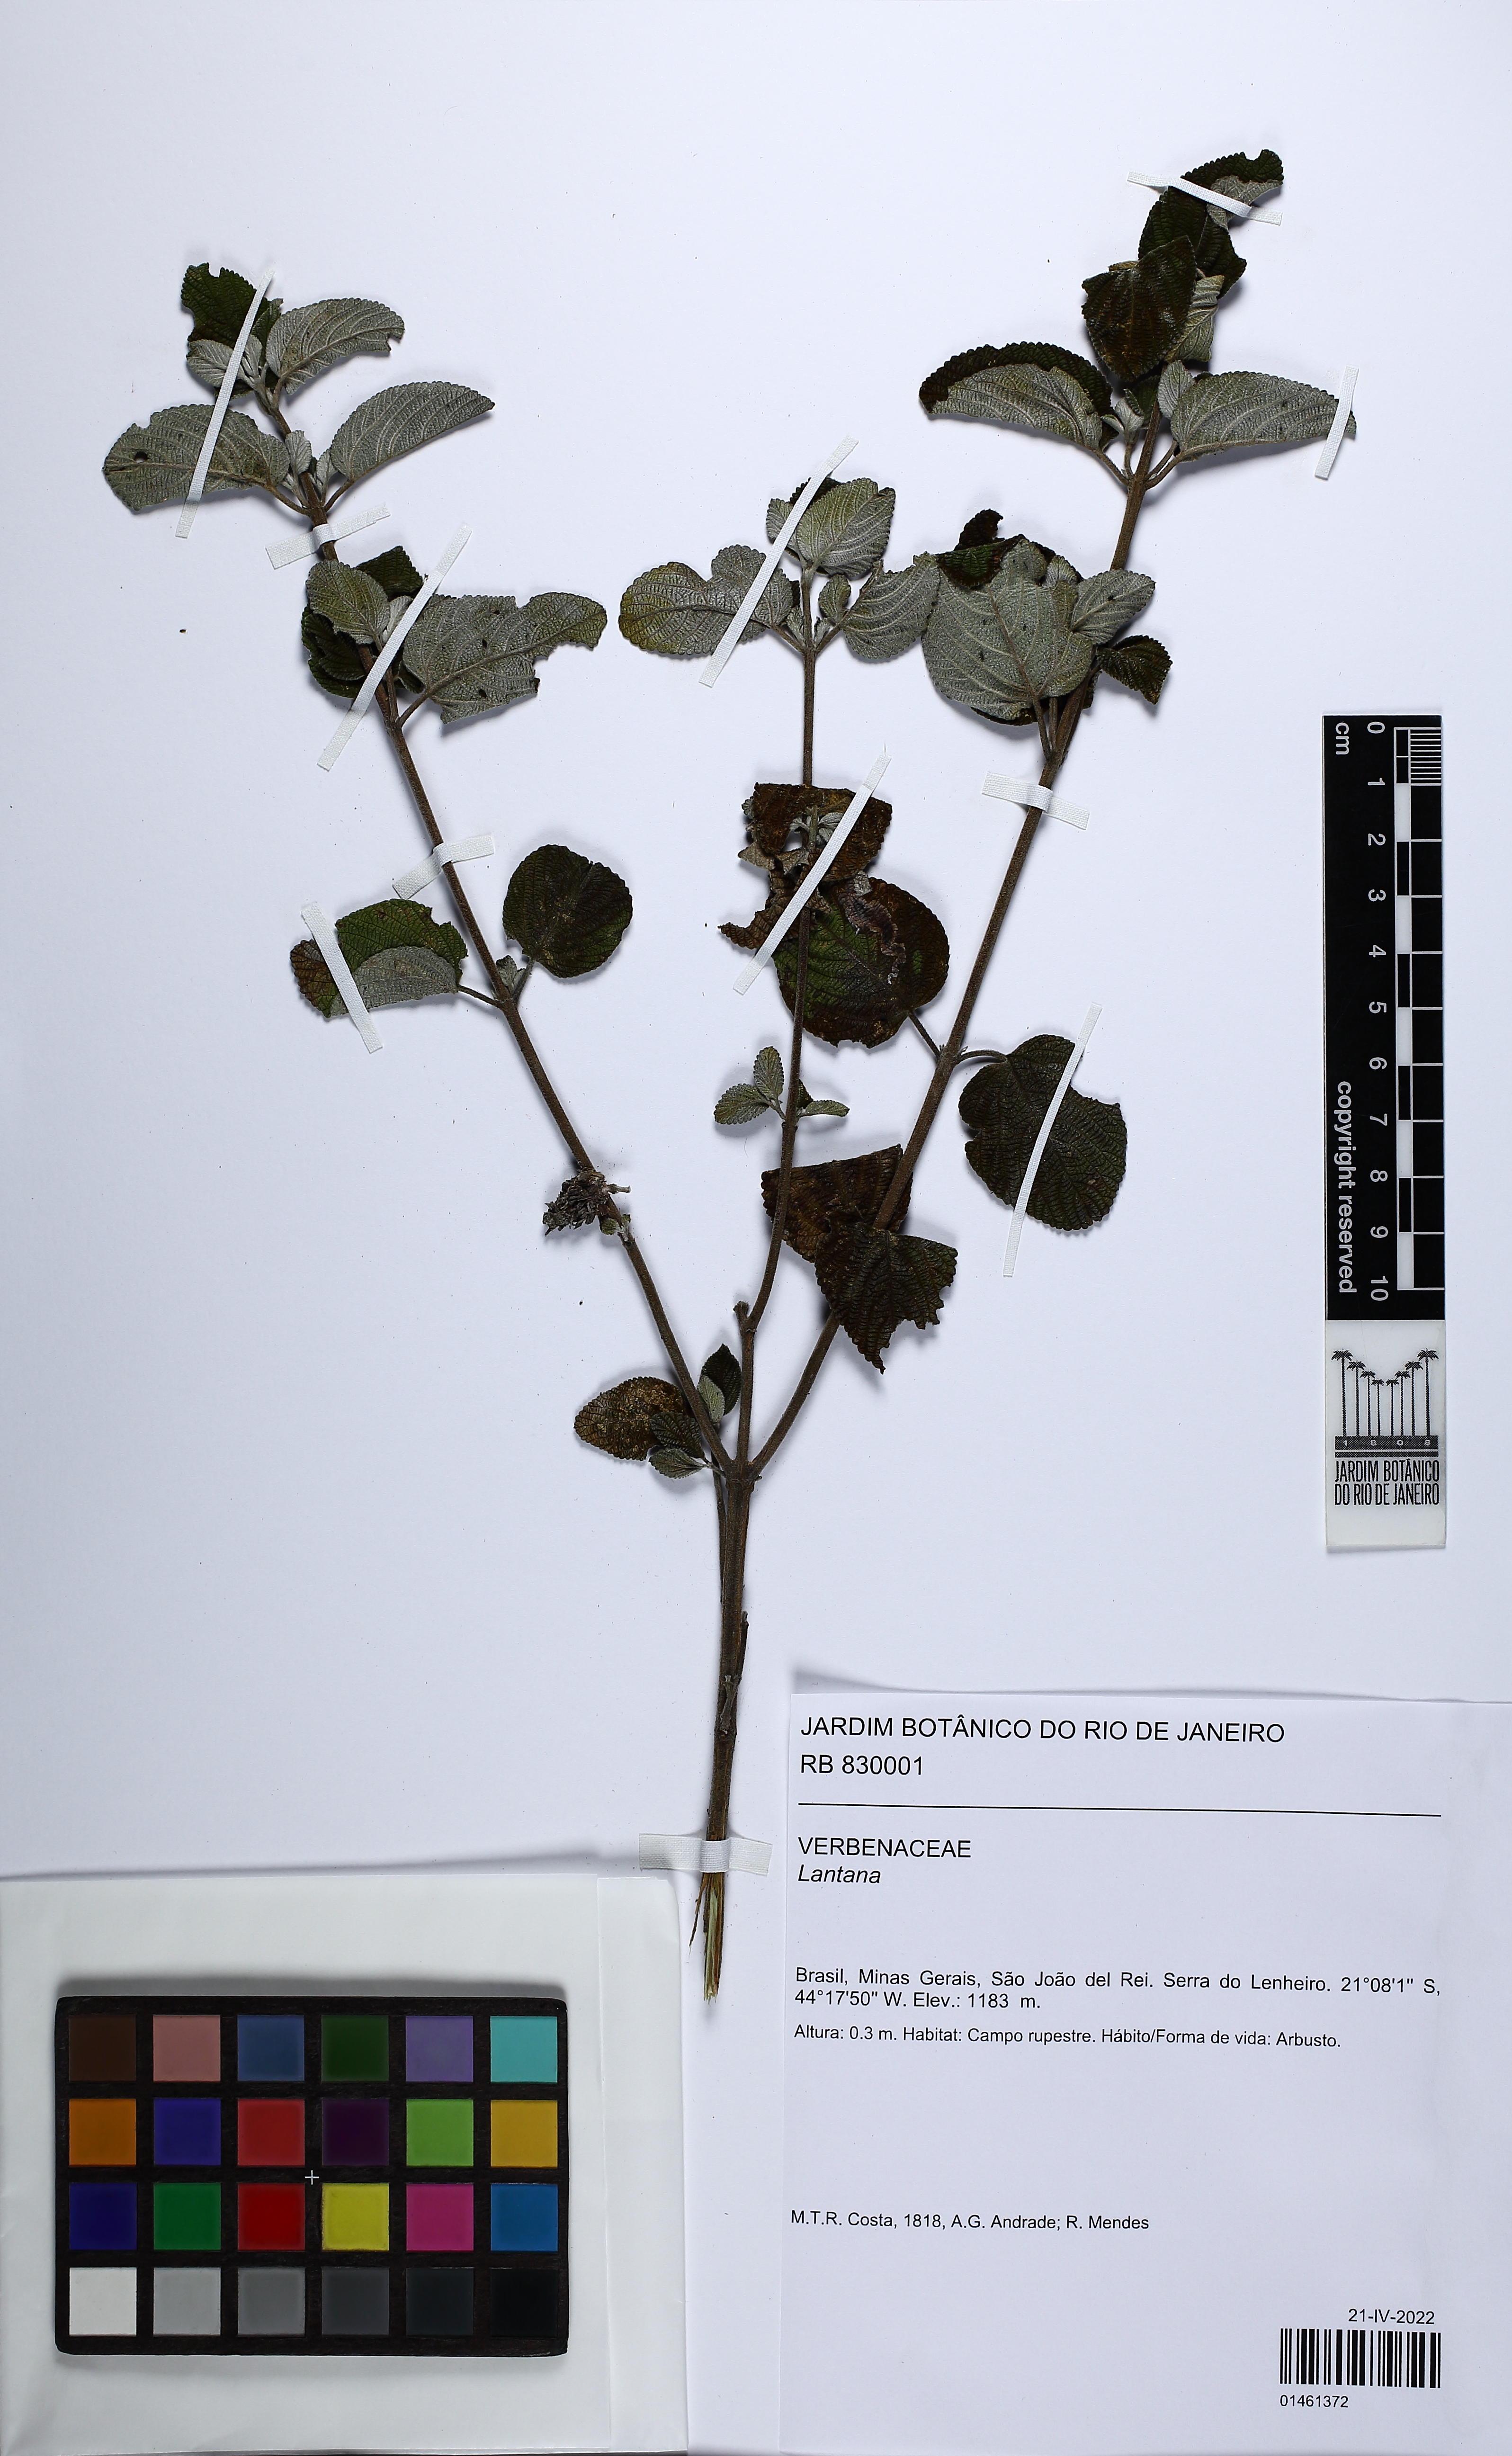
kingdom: Plantae
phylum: Tracheophyta
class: Magnoliopsida
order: Lamiales
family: Verbenaceae
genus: Lantana
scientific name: Lantana
